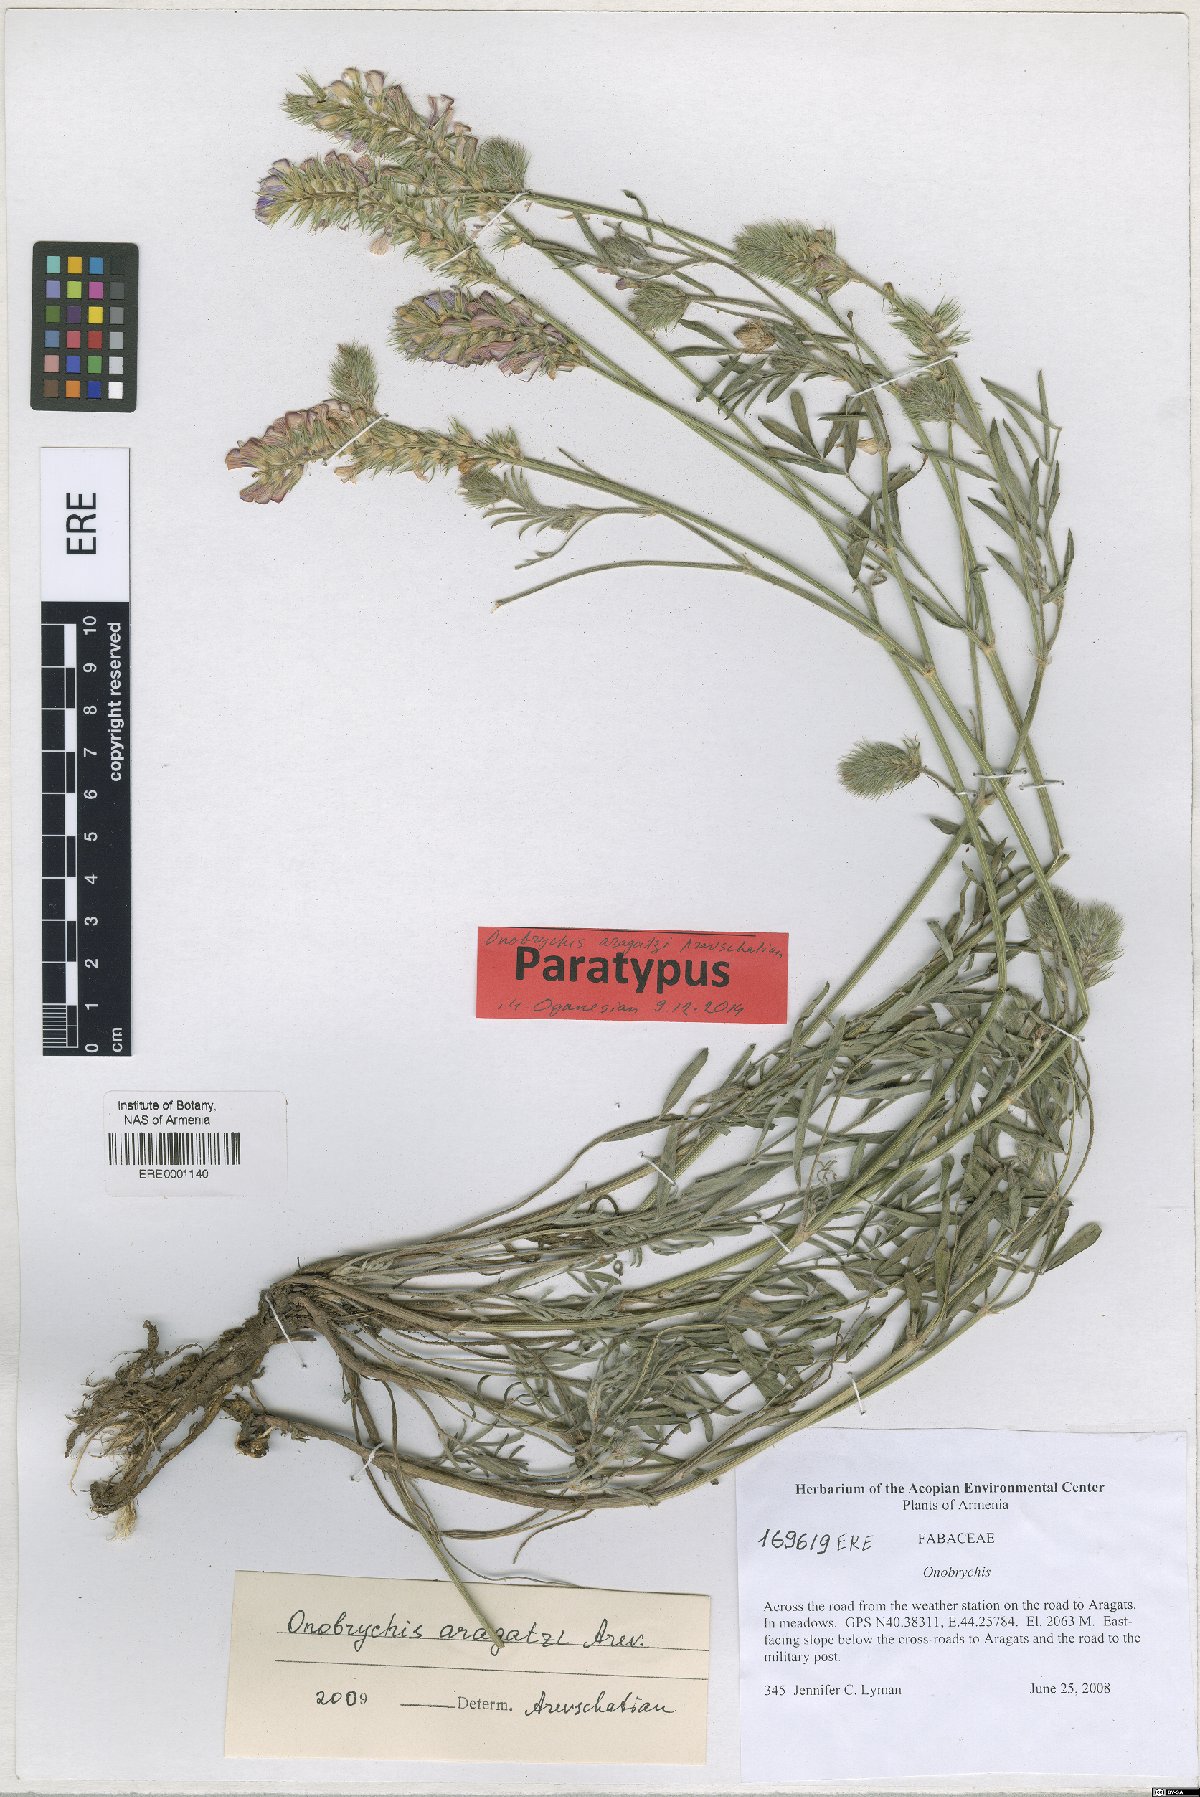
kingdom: Plantae
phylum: Tracheophyta
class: Magnoliopsida
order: Fabales
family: Fabaceae
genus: Onobrychis
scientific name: Onobrychis aragatzi
